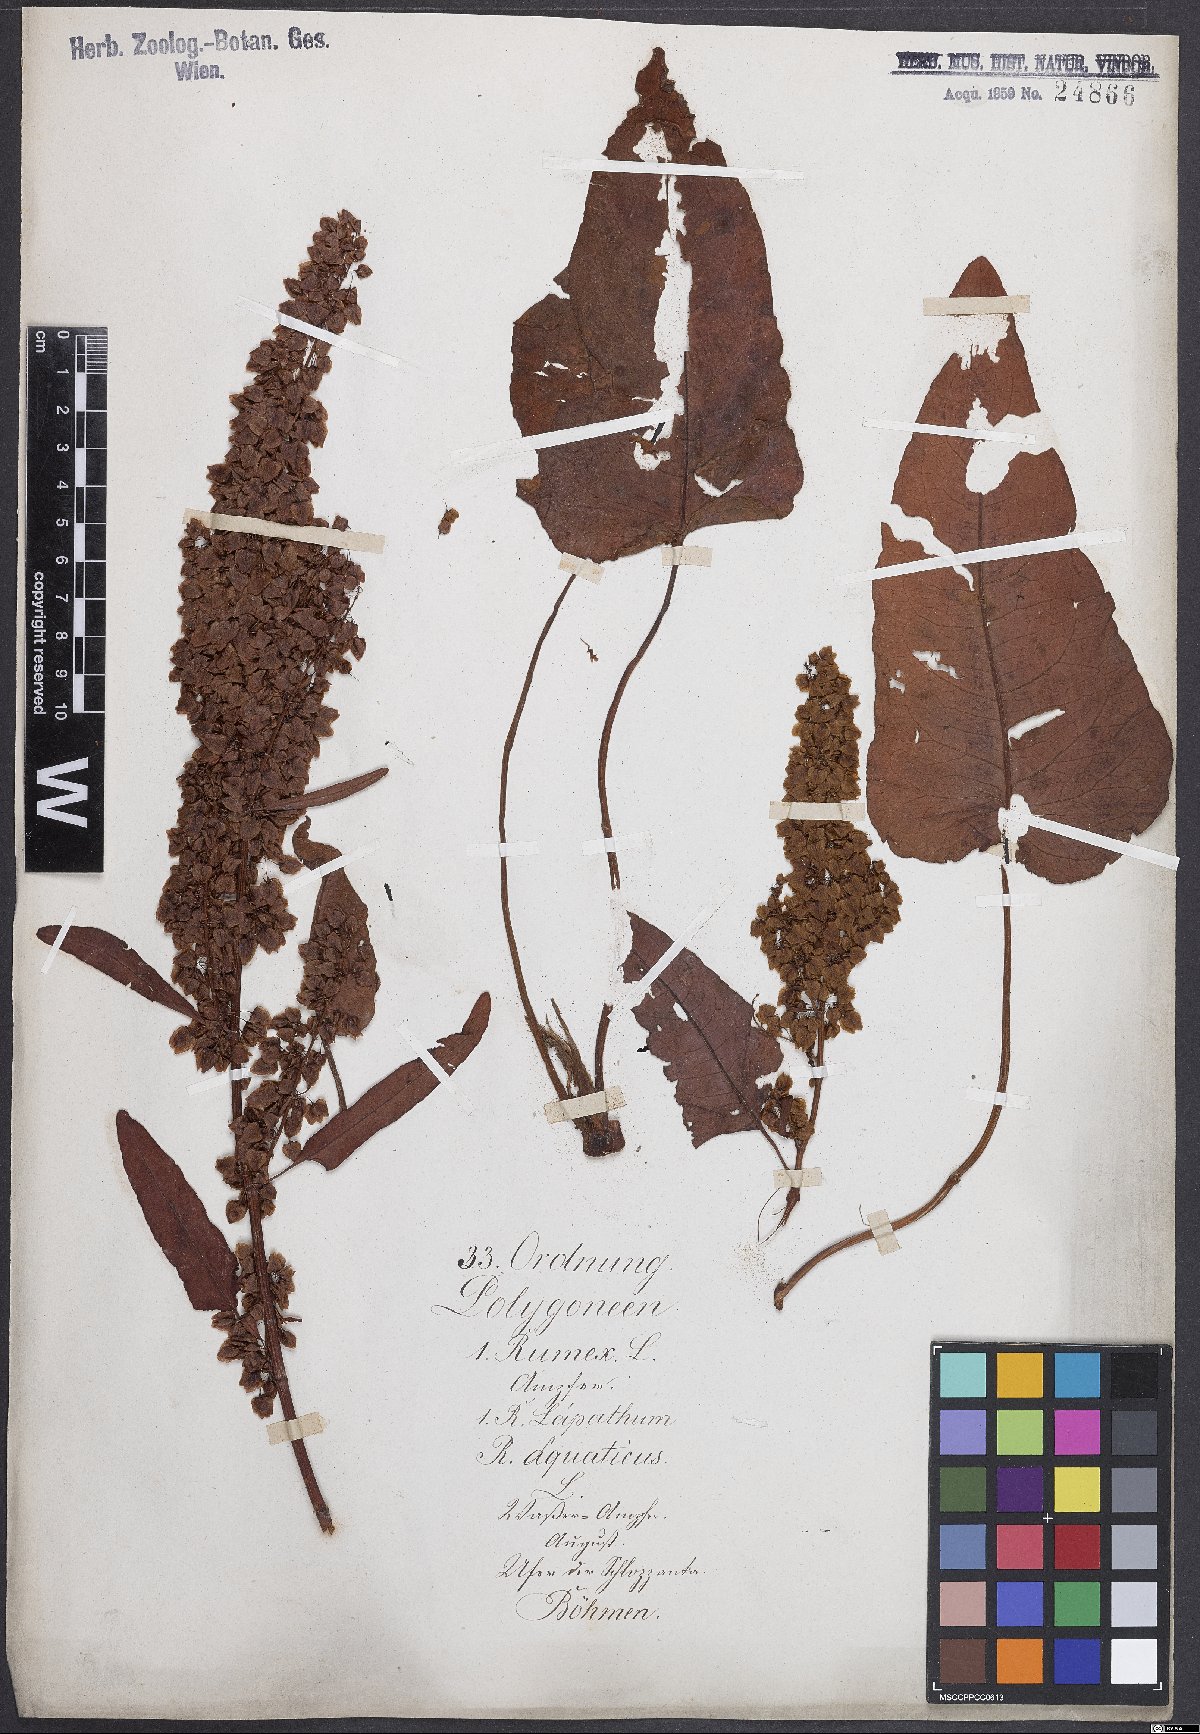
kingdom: Plantae
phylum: Tracheophyta
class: Magnoliopsida
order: Caryophyllales
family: Polygonaceae
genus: Rumex
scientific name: Rumex aquaticus
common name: Scottish dock
